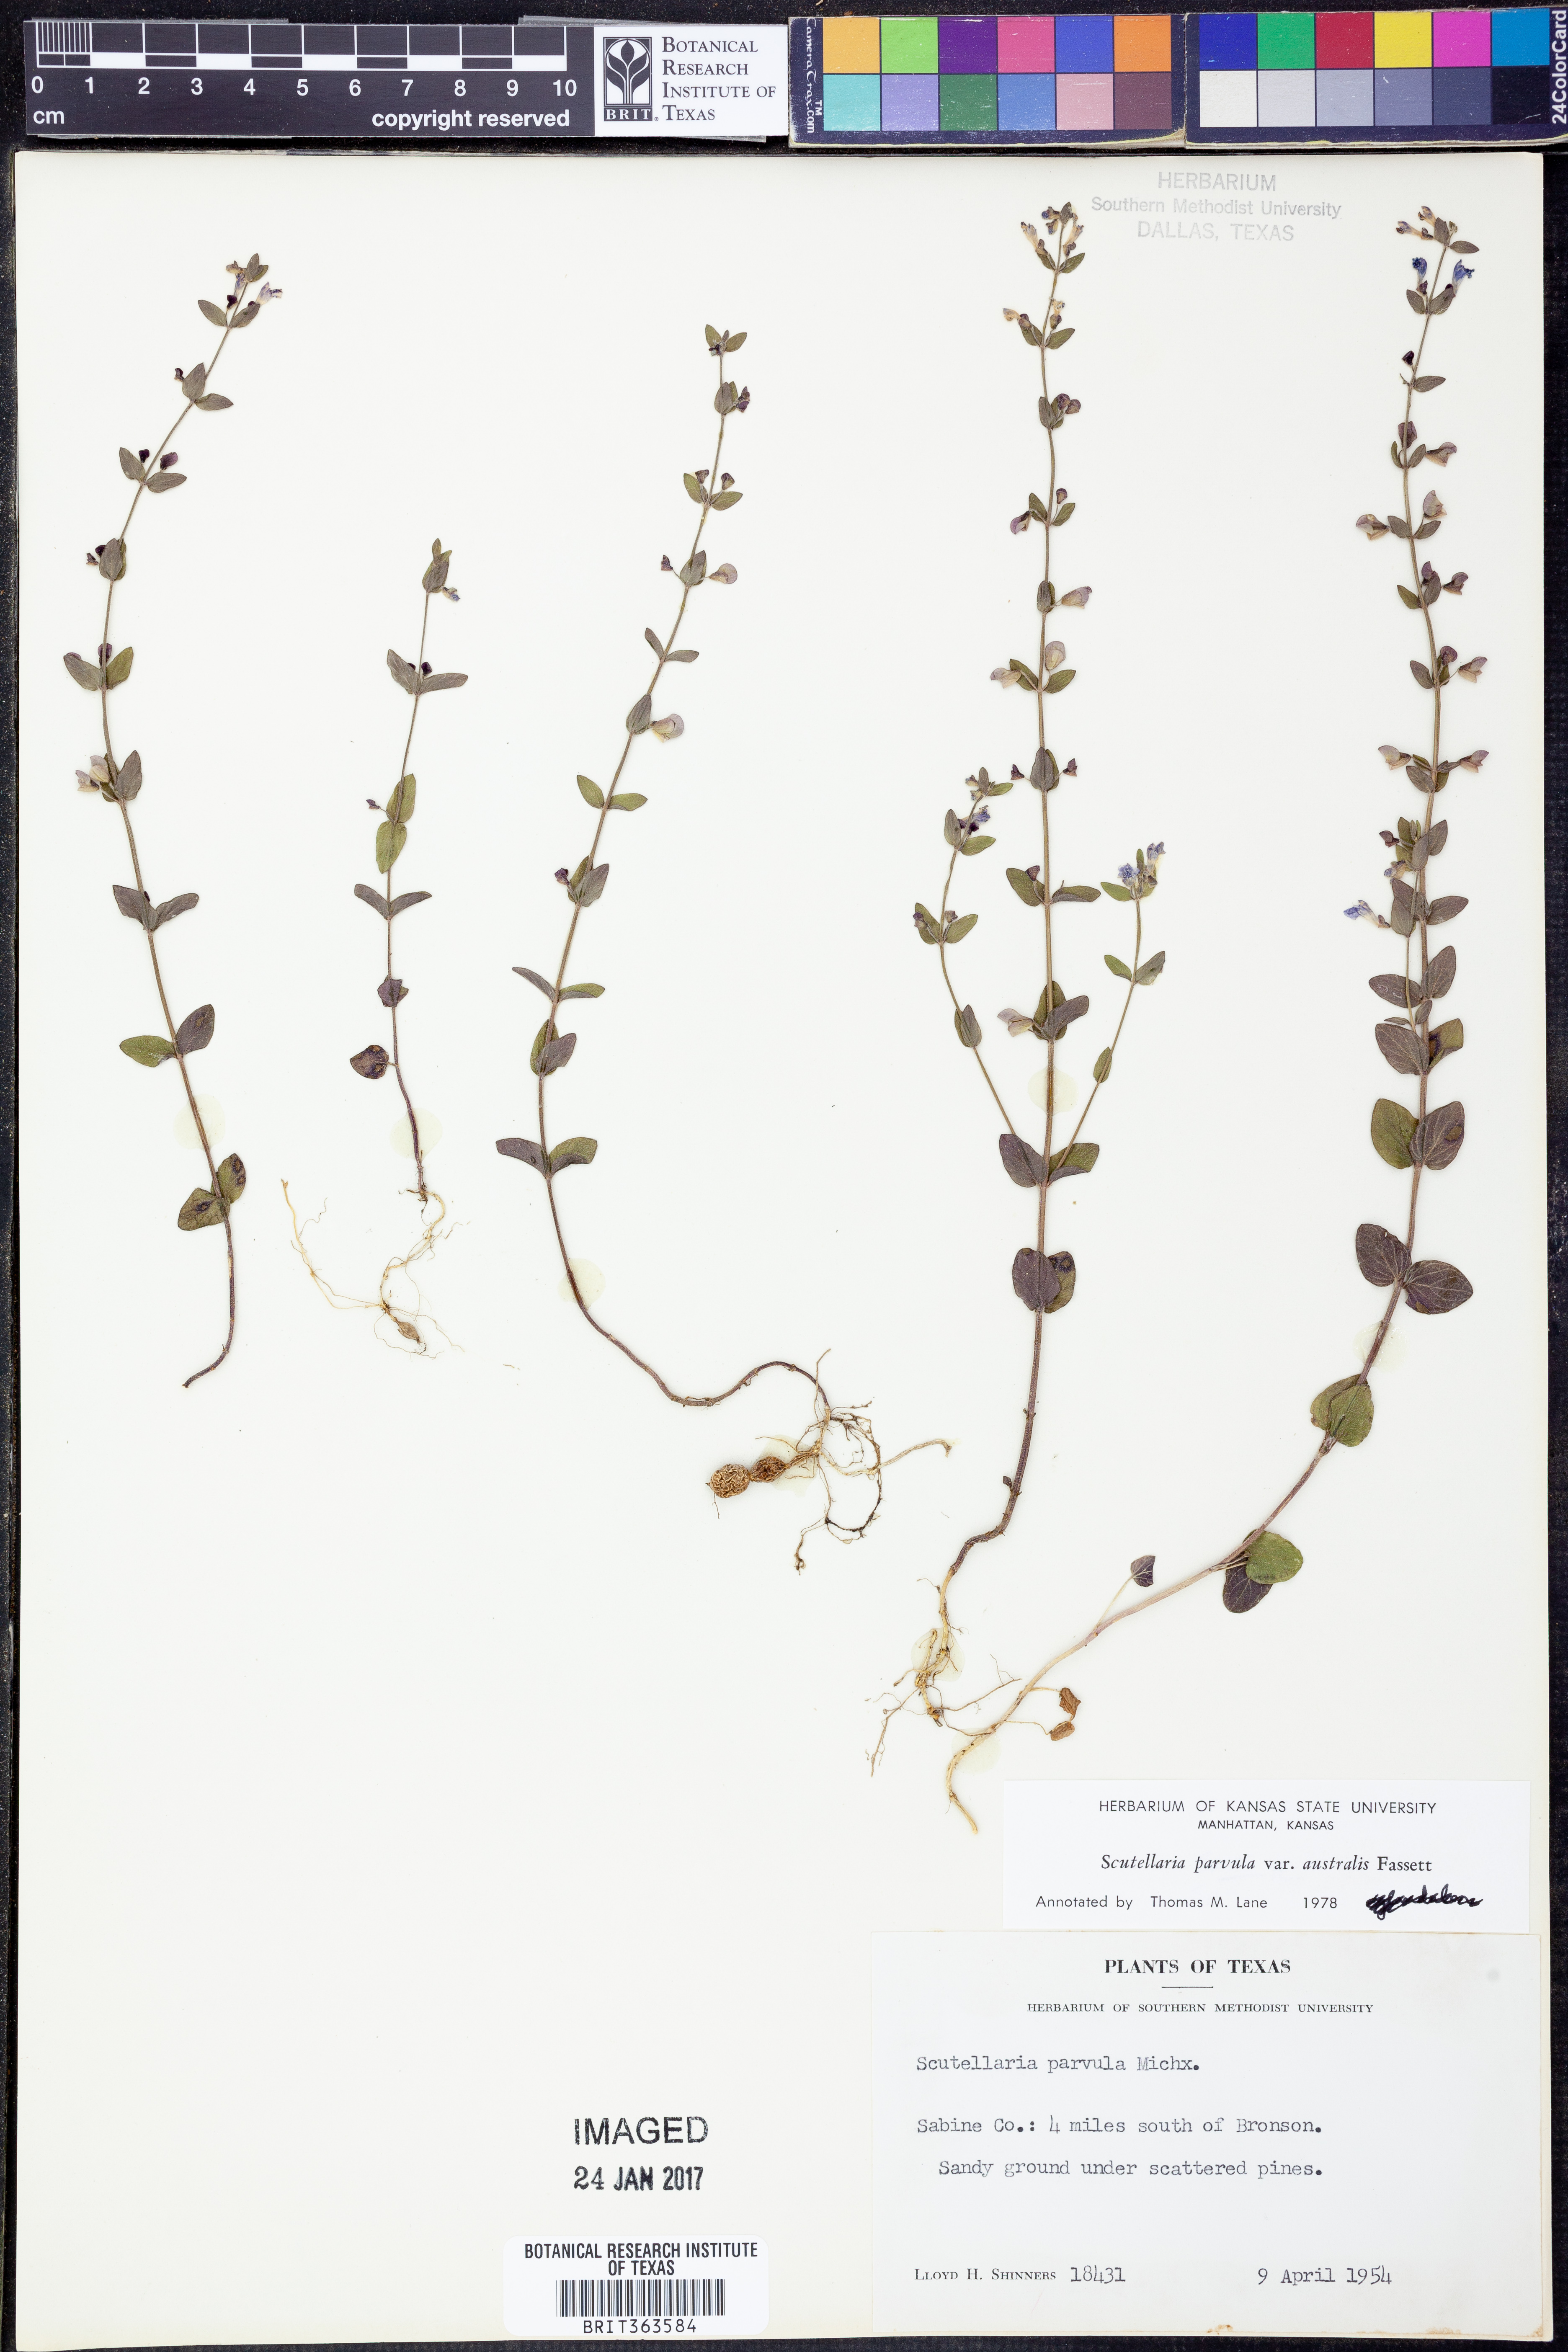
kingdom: Plantae
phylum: Tracheophyta
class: Magnoliopsida
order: Lamiales
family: Lamiaceae
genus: Scutellaria
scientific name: Scutellaria parvula
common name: Little scullcap
